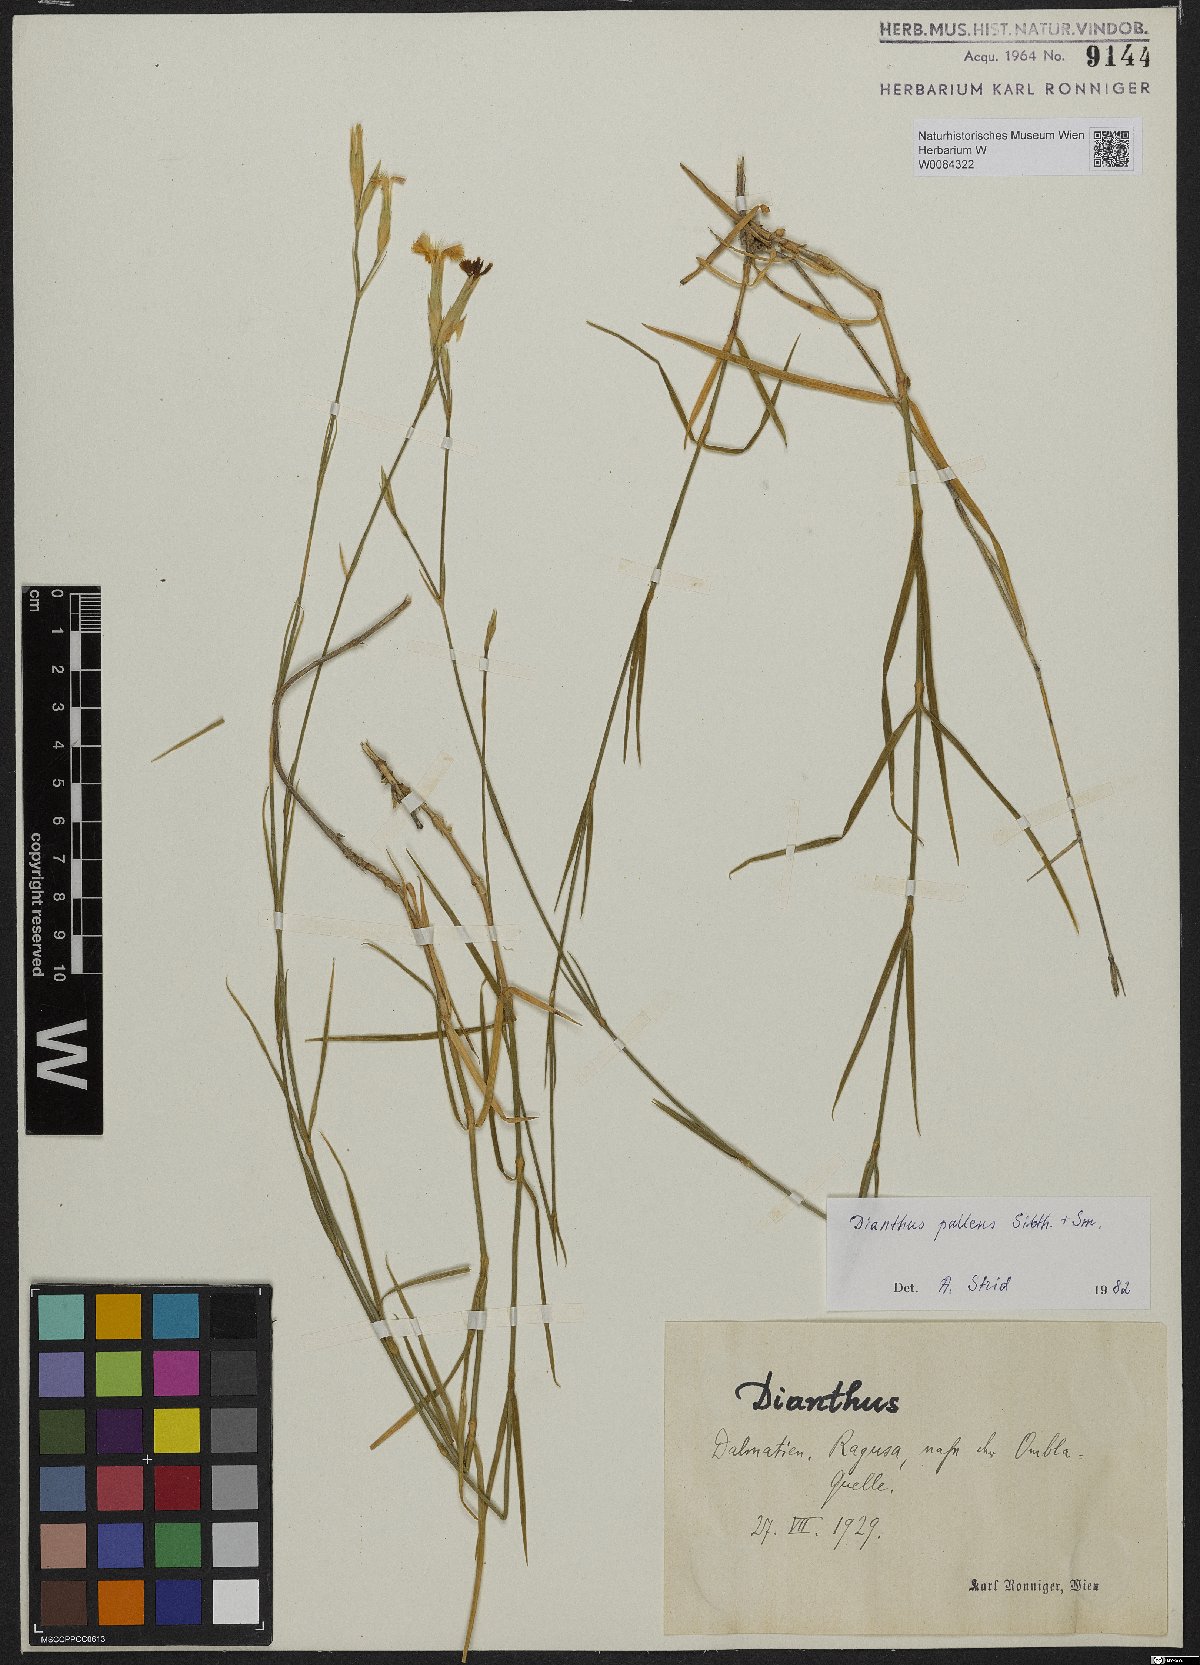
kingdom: Plantae
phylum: Tracheophyta
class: Magnoliopsida
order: Caryophyllales
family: Caryophyllaceae
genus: Dianthus
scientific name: Dianthus monadelphus
